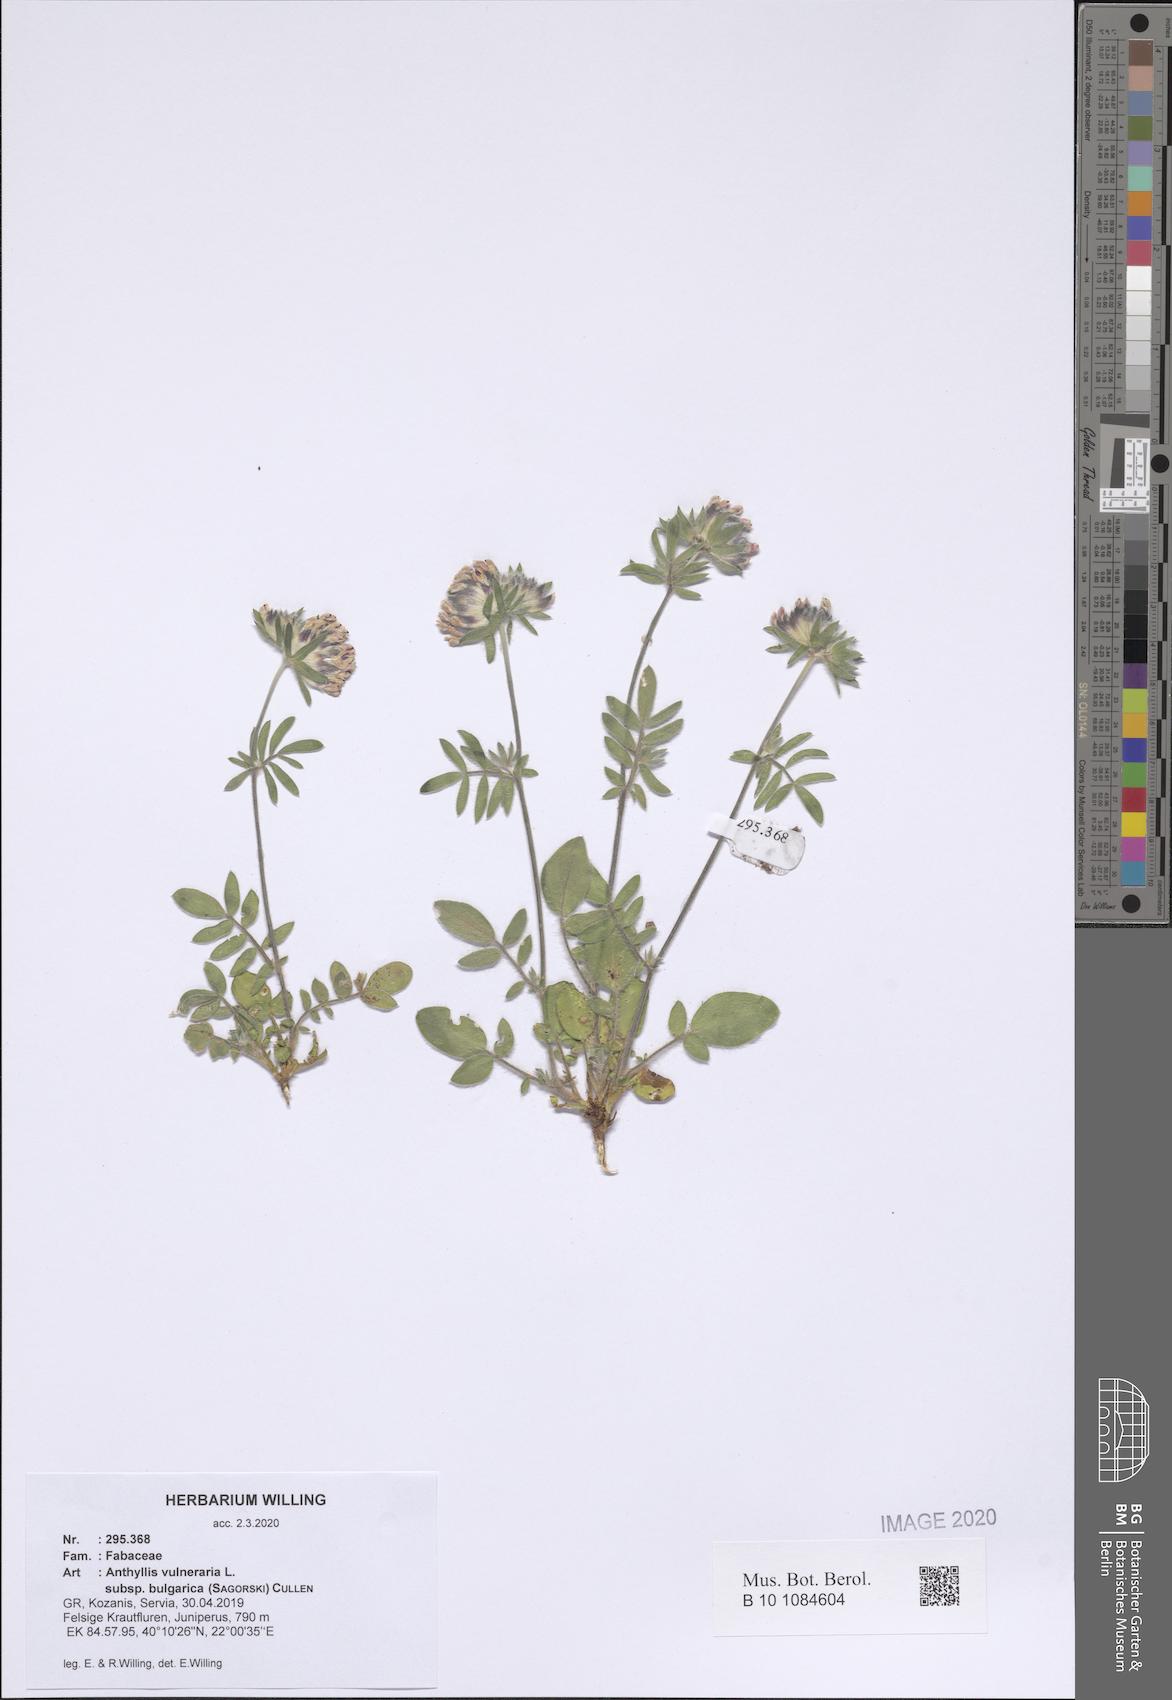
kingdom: Plantae
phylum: Tracheophyta
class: Magnoliopsida
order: Fabales
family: Fabaceae
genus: Anthyllis
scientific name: Anthyllis vulneraria
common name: Kidney vetch
